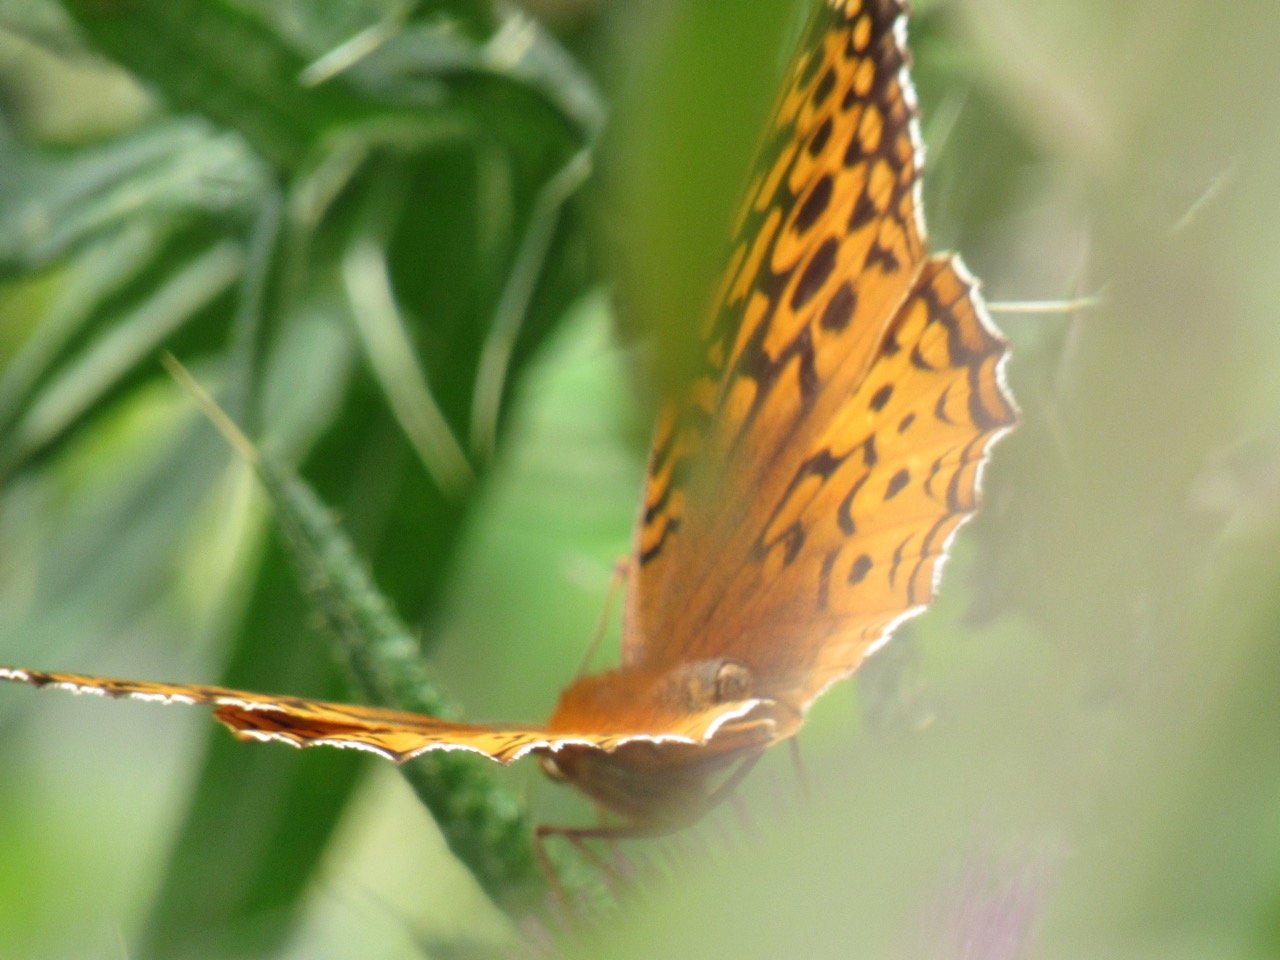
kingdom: Animalia
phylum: Arthropoda
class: Insecta
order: Lepidoptera
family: Nymphalidae
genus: Speyeria
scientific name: Speyeria cybele
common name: Great Spangled Fritillary
